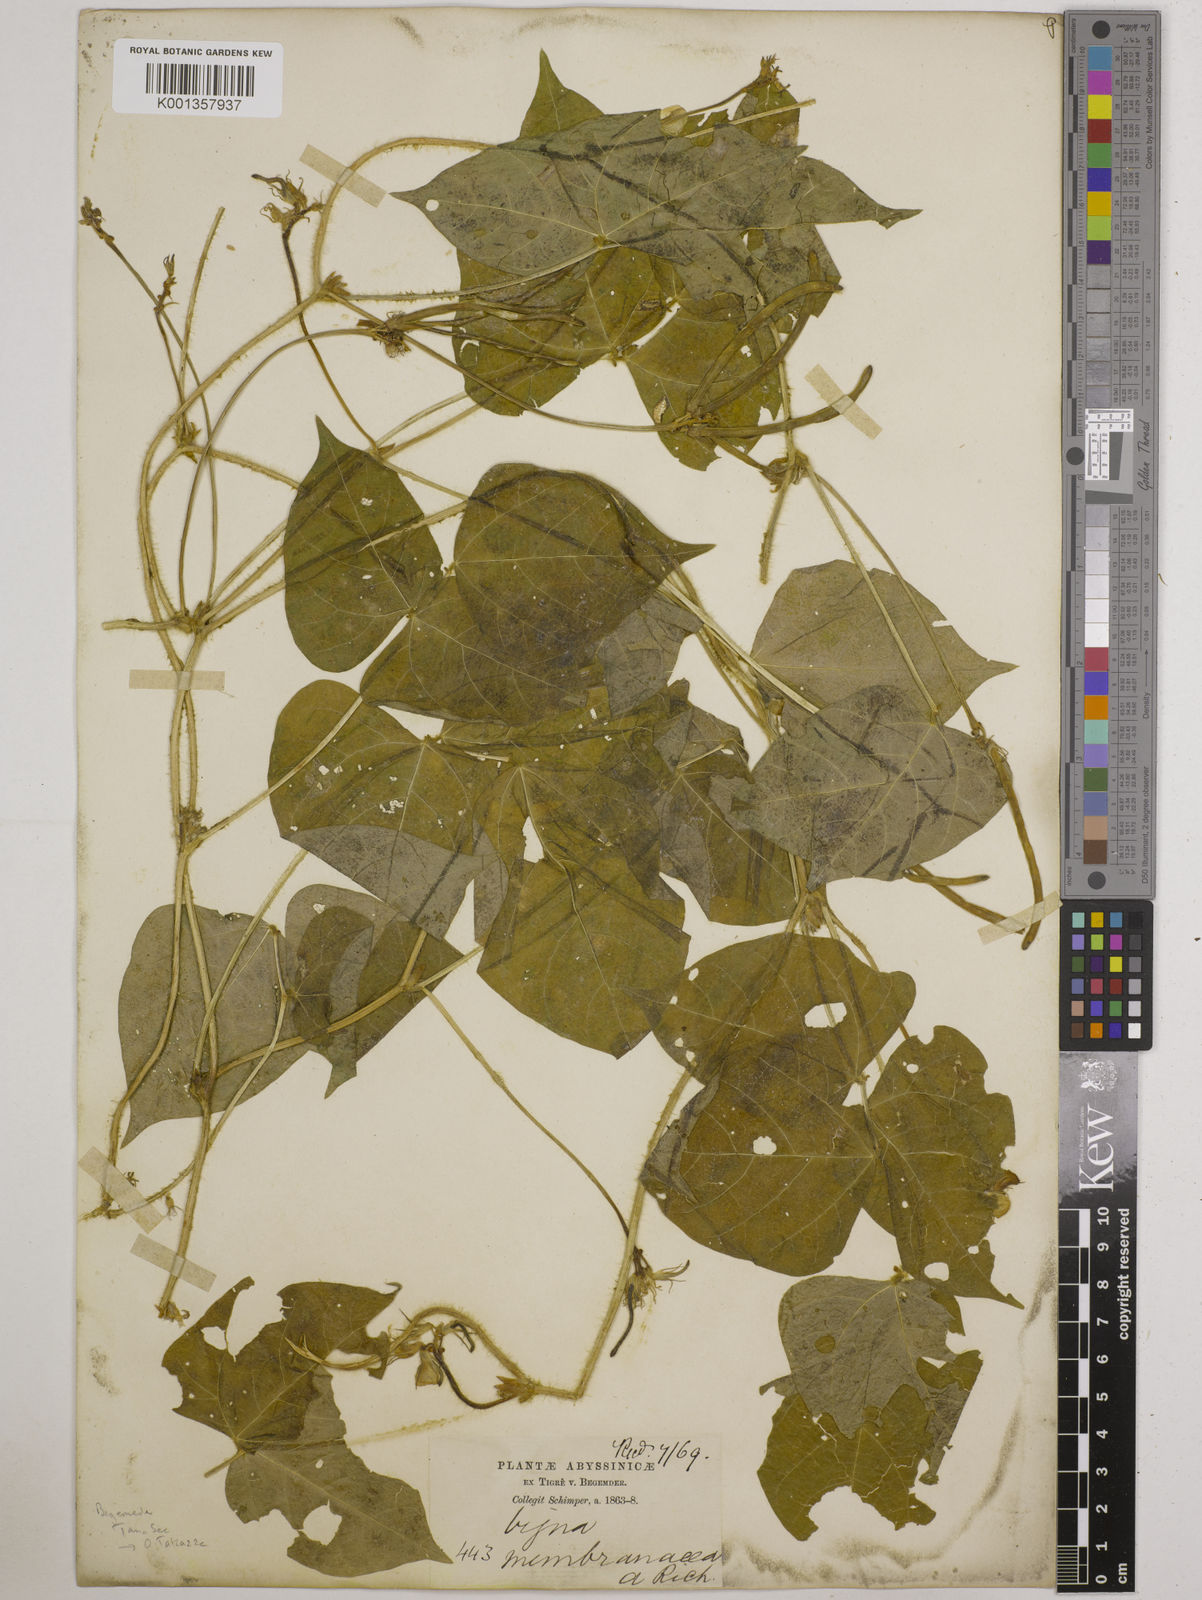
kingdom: Plantae
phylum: Tracheophyta
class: Magnoliopsida
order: Fabales
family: Fabaceae
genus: Vigna
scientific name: Vigna membranacea
